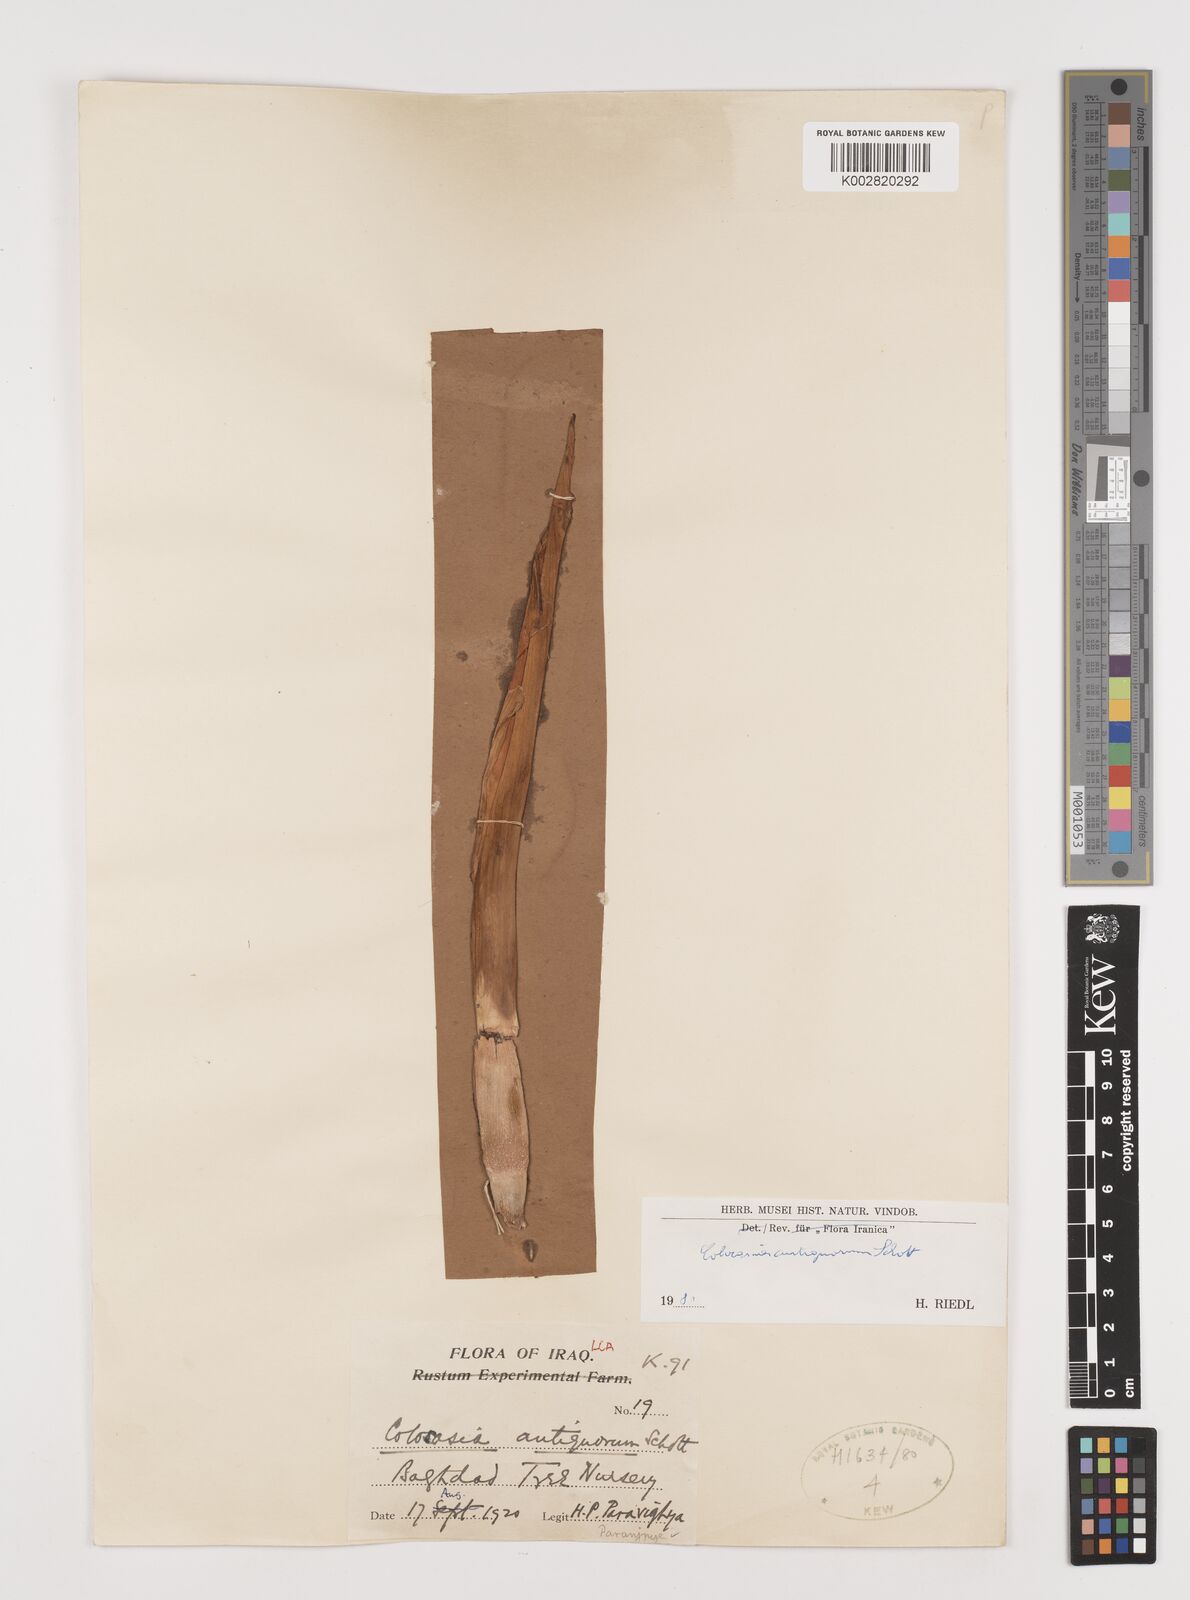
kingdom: Plantae
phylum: Tracheophyta
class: Liliopsida
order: Alismatales
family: Araceae
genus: Colocasia
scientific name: Colocasia esculenta
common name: Taro
